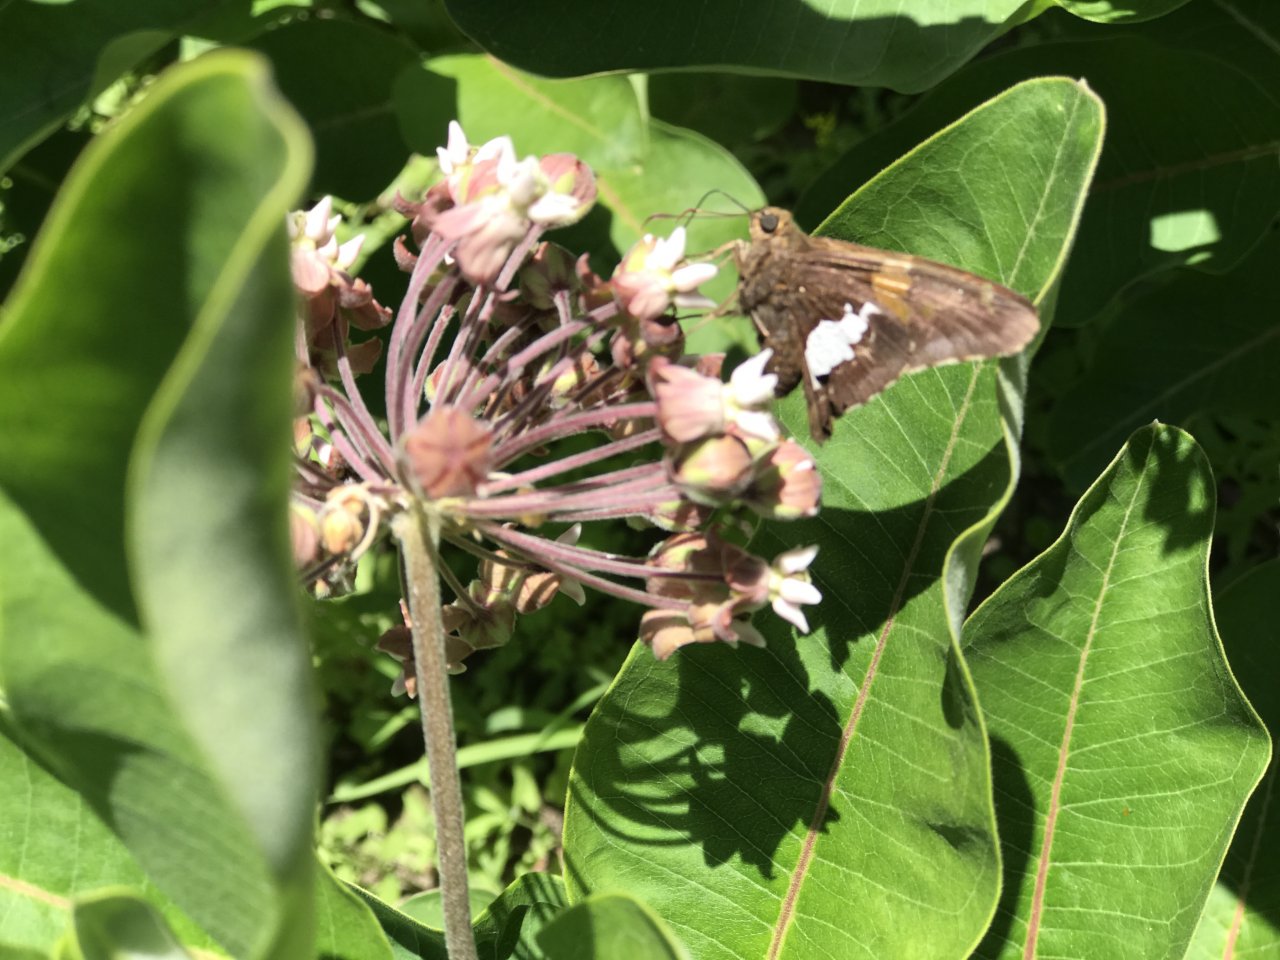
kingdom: Animalia
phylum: Arthropoda
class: Insecta
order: Lepidoptera
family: Hesperiidae
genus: Epargyreus
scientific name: Epargyreus clarus
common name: Silver-spotted Skipper
